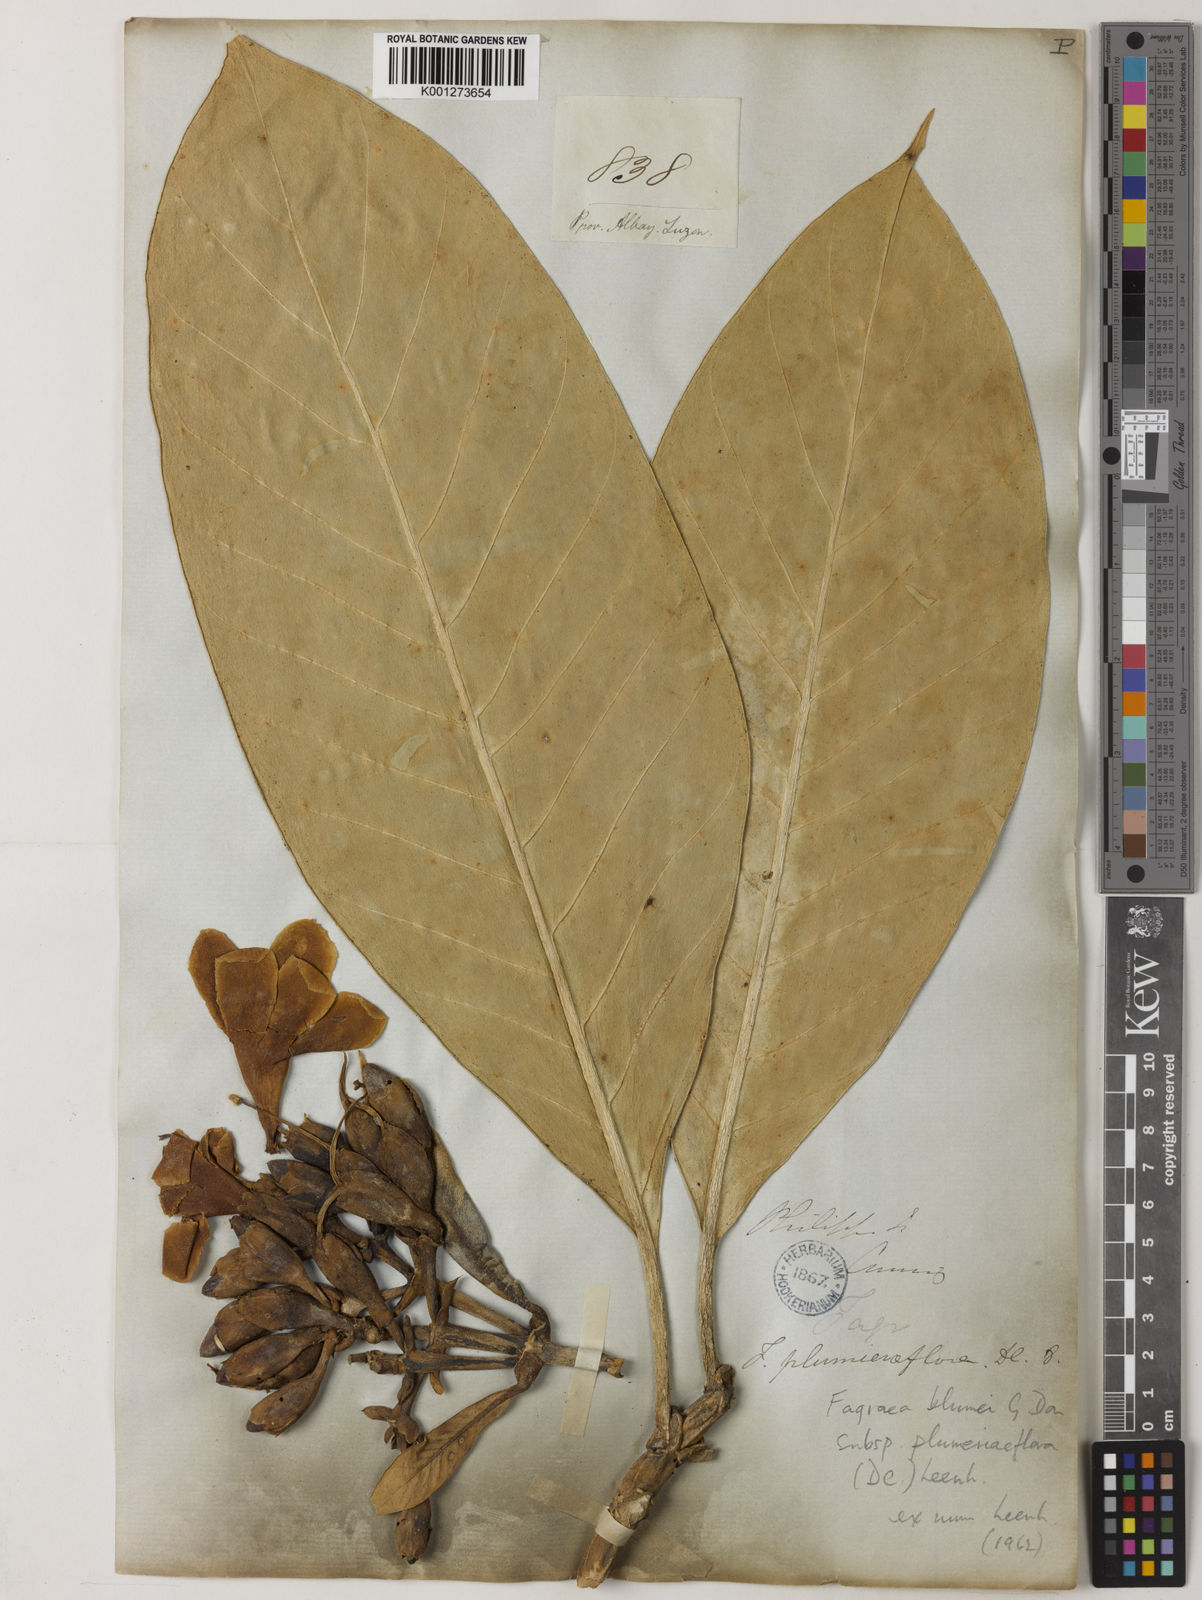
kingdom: Plantae
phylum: Tracheophyta
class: Magnoliopsida
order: Gentianales
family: Gentianaceae
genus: Fagraea
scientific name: Fagraea plumeriiflora
